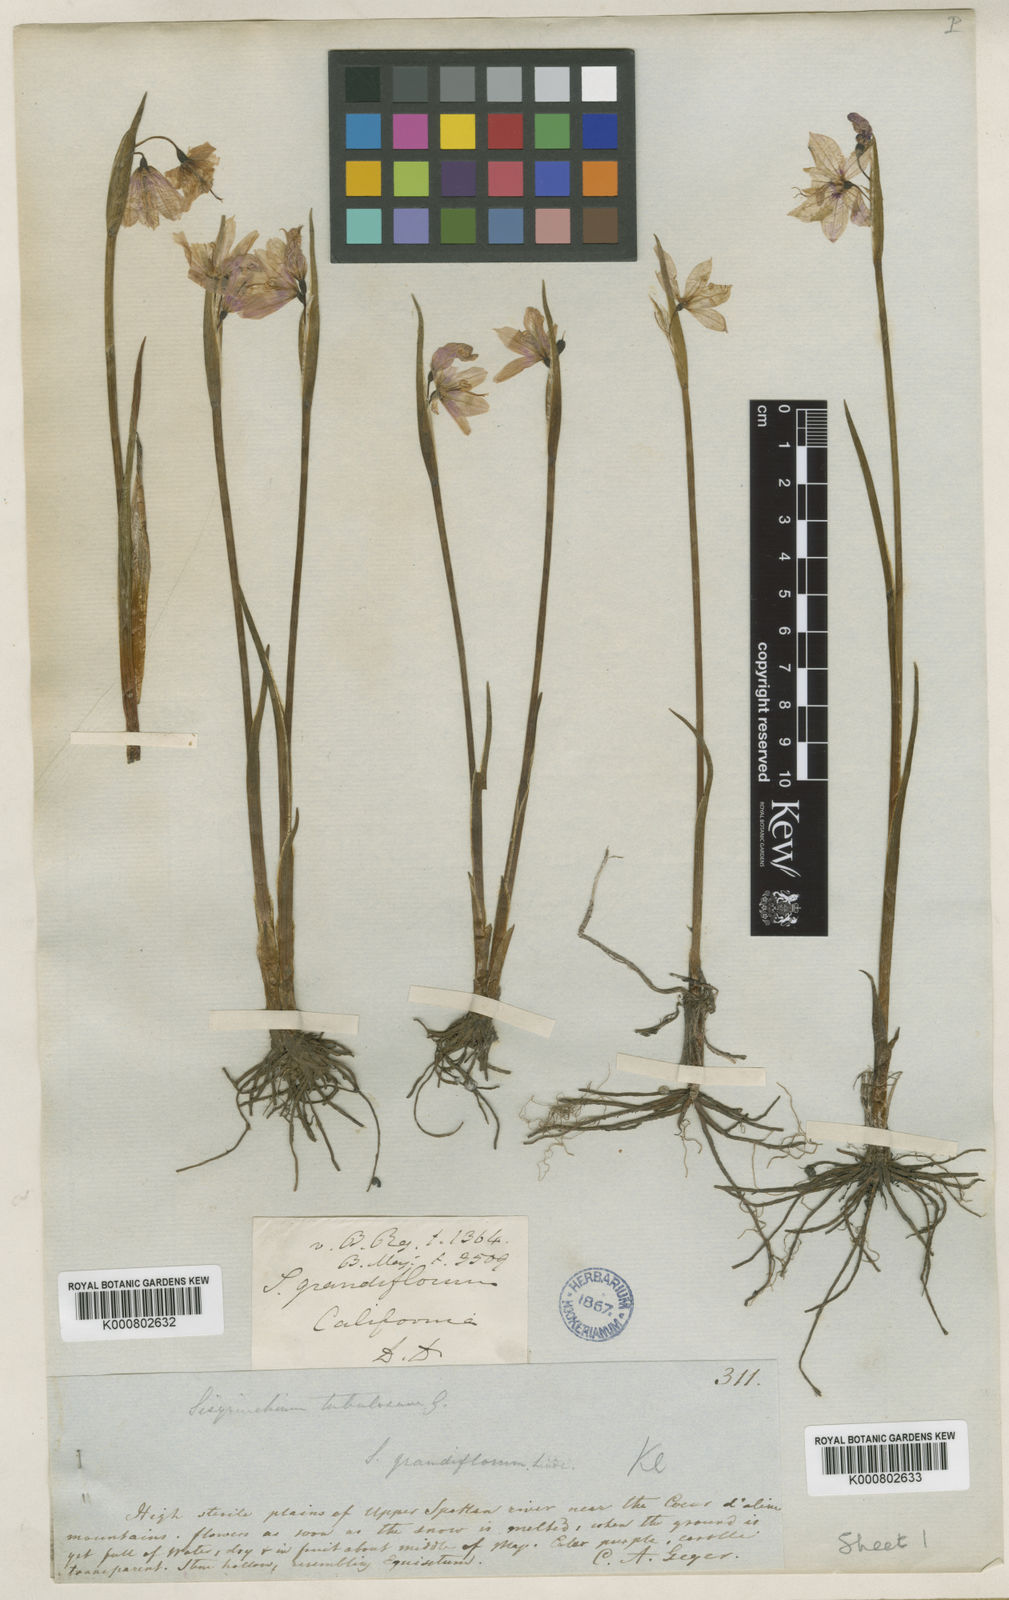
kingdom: Plantae
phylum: Tracheophyta
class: Liliopsida
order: Asparagales
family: Iridaceae
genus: Olsynium
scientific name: Olsynium douglasii
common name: Douglas' grasswidow
